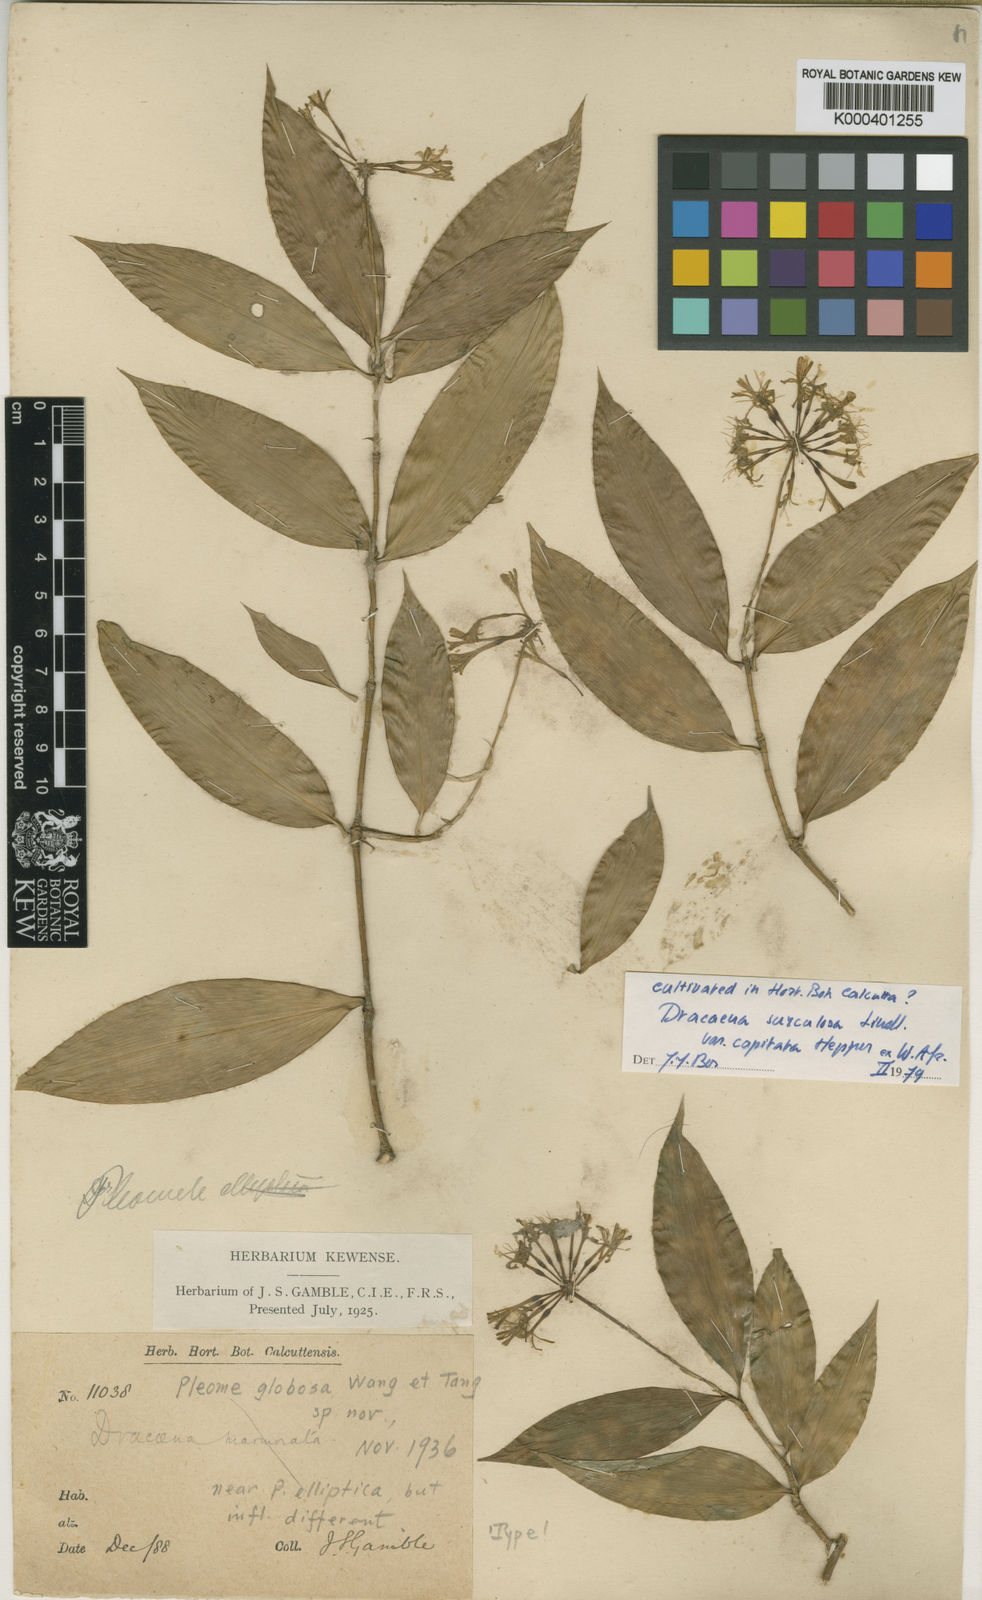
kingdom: Plantae
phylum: Tracheophyta
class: Liliopsida
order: Asparagales
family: Asparagaceae
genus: Dracaena
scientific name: Dracaena surculosa
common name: Spotted dracaena
